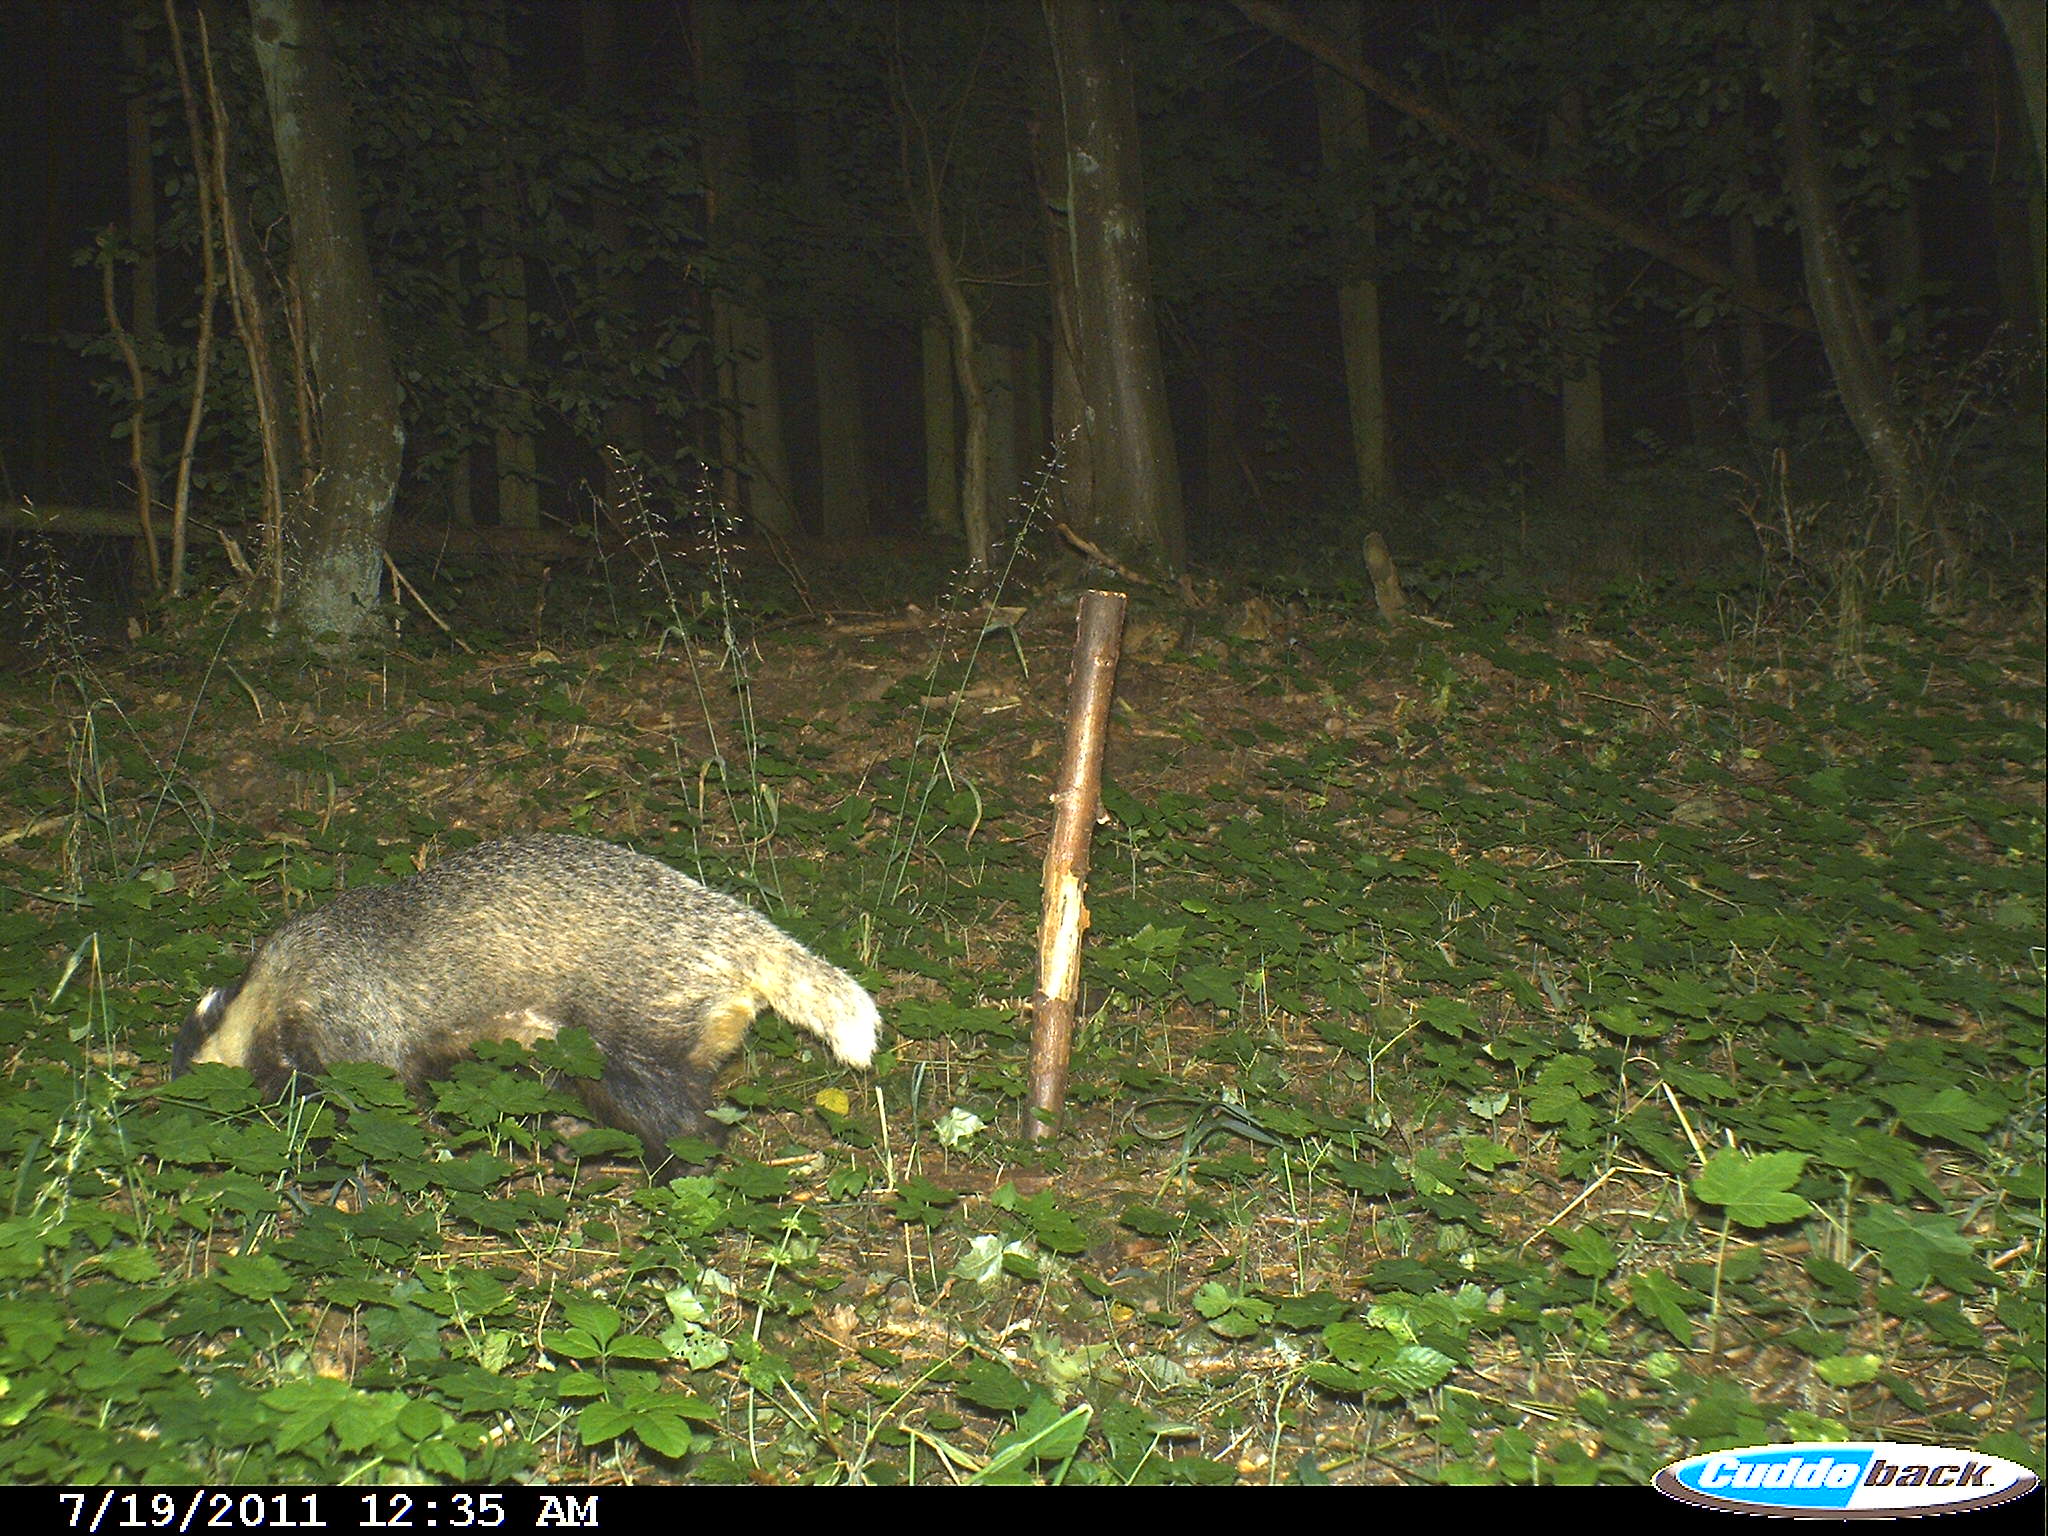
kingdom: Animalia
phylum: Chordata
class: Mammalia
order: Carnivora
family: Mustelidae
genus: Meles
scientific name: Meles meles
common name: Eurasian badger
